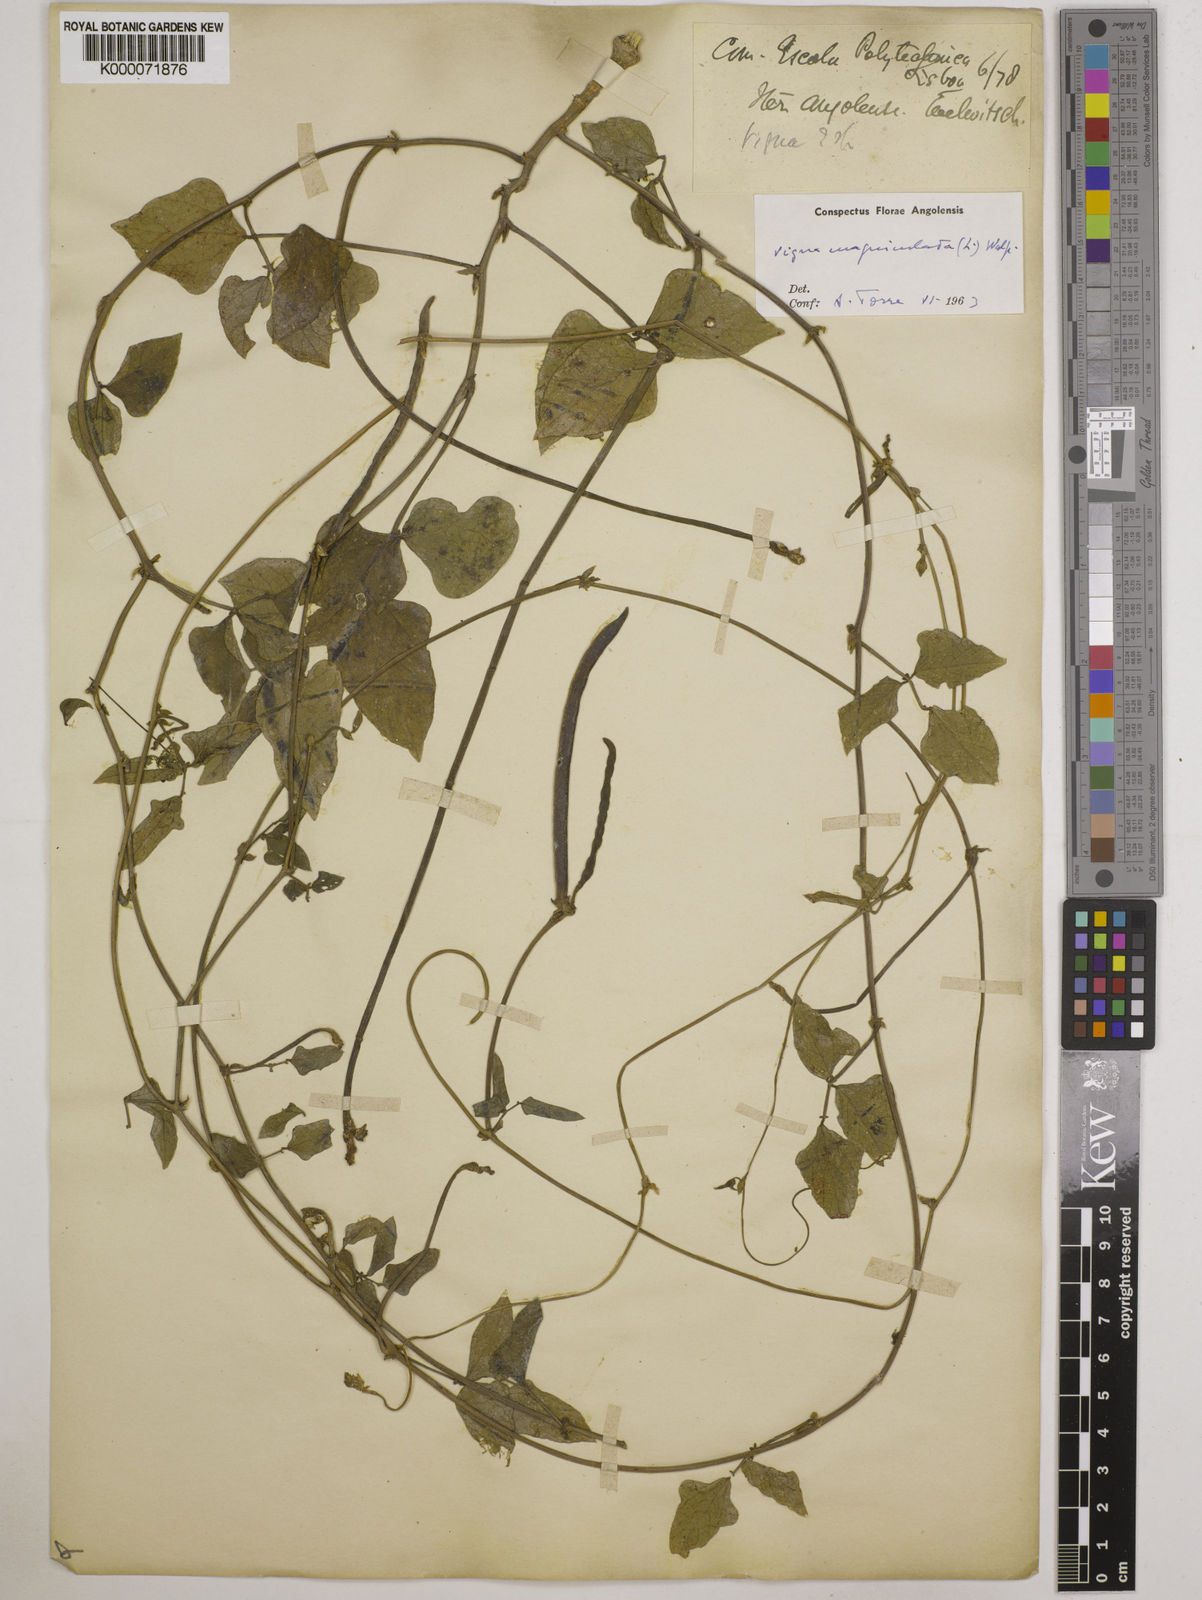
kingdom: Plantae
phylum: Tracheophyta
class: Magnoliopsida
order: Fabales
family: Fabaceae
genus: Vigna
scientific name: Vigna unguiculata
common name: Cowpea
